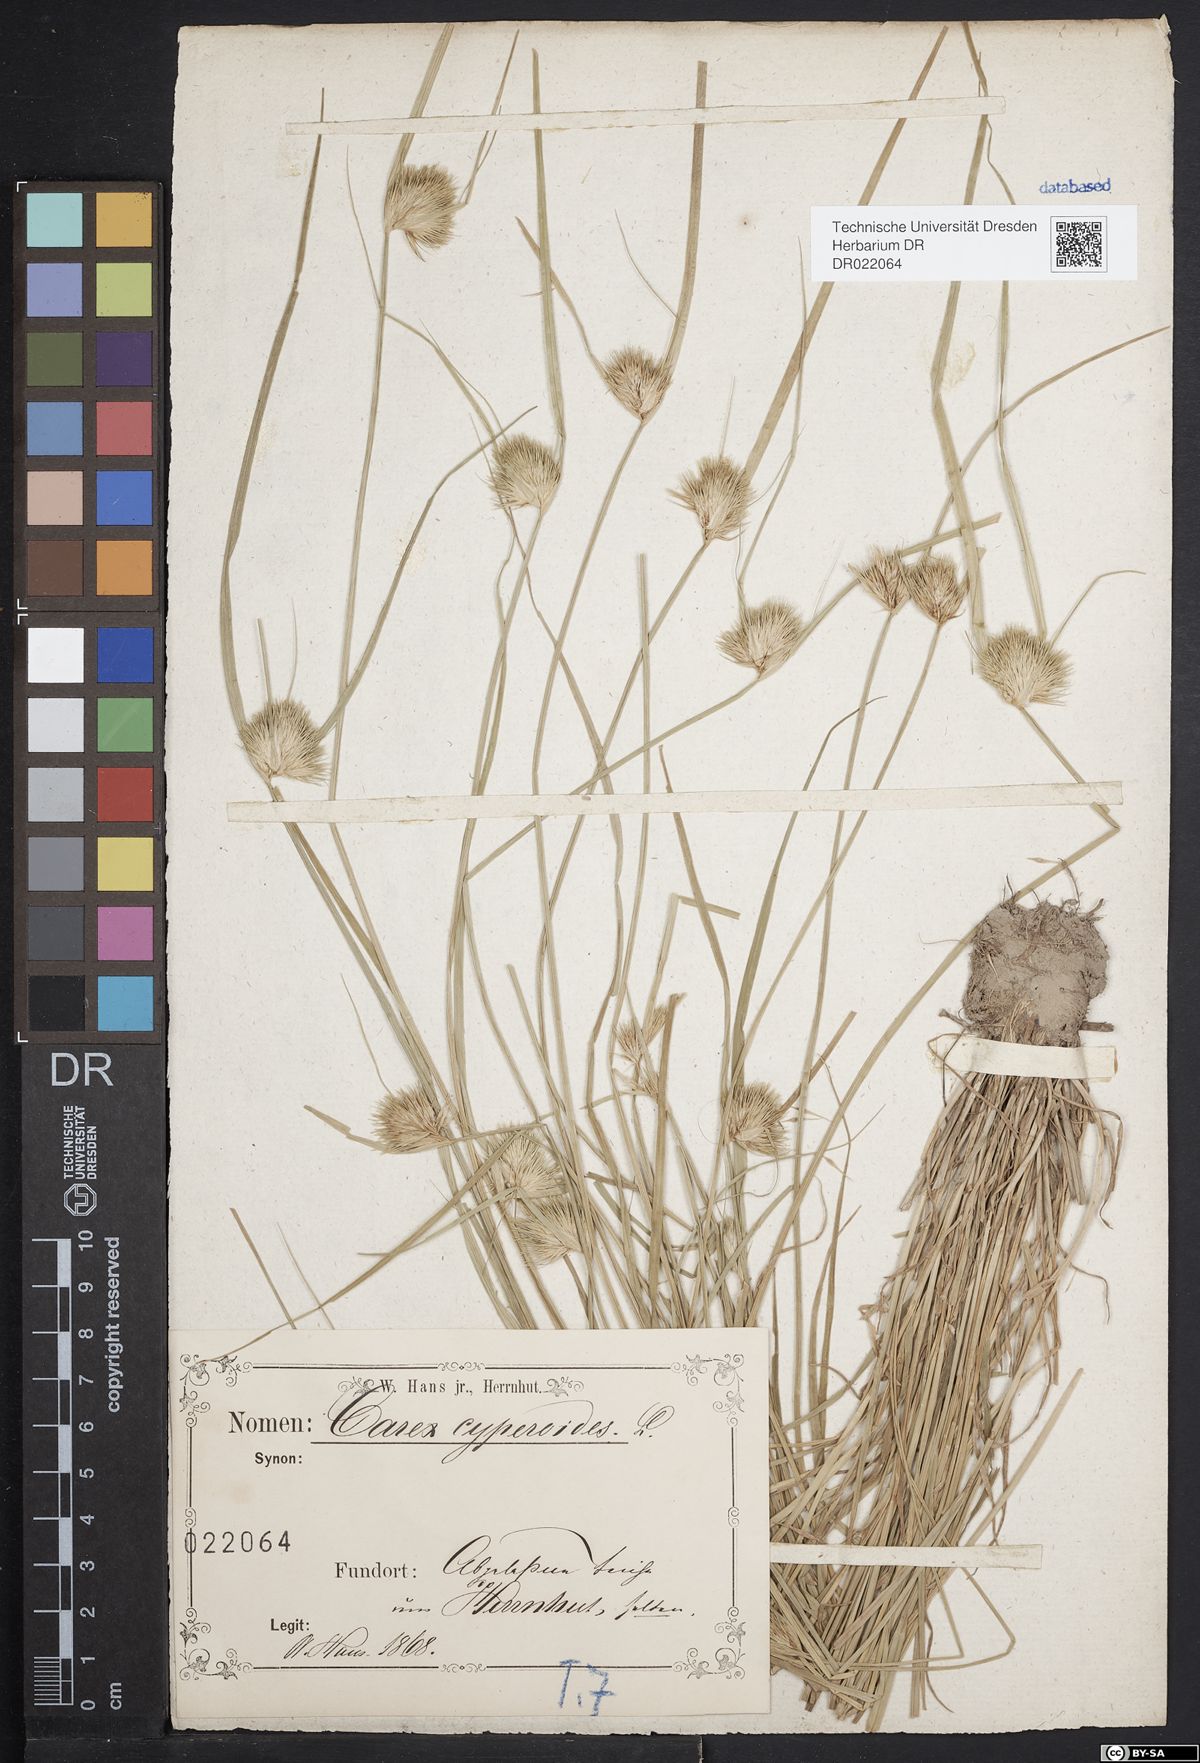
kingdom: Plantae
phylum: Tracheophyta
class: Liliopsida
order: Poales
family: Cyperaceae
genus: Carex
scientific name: Carex bohemica
